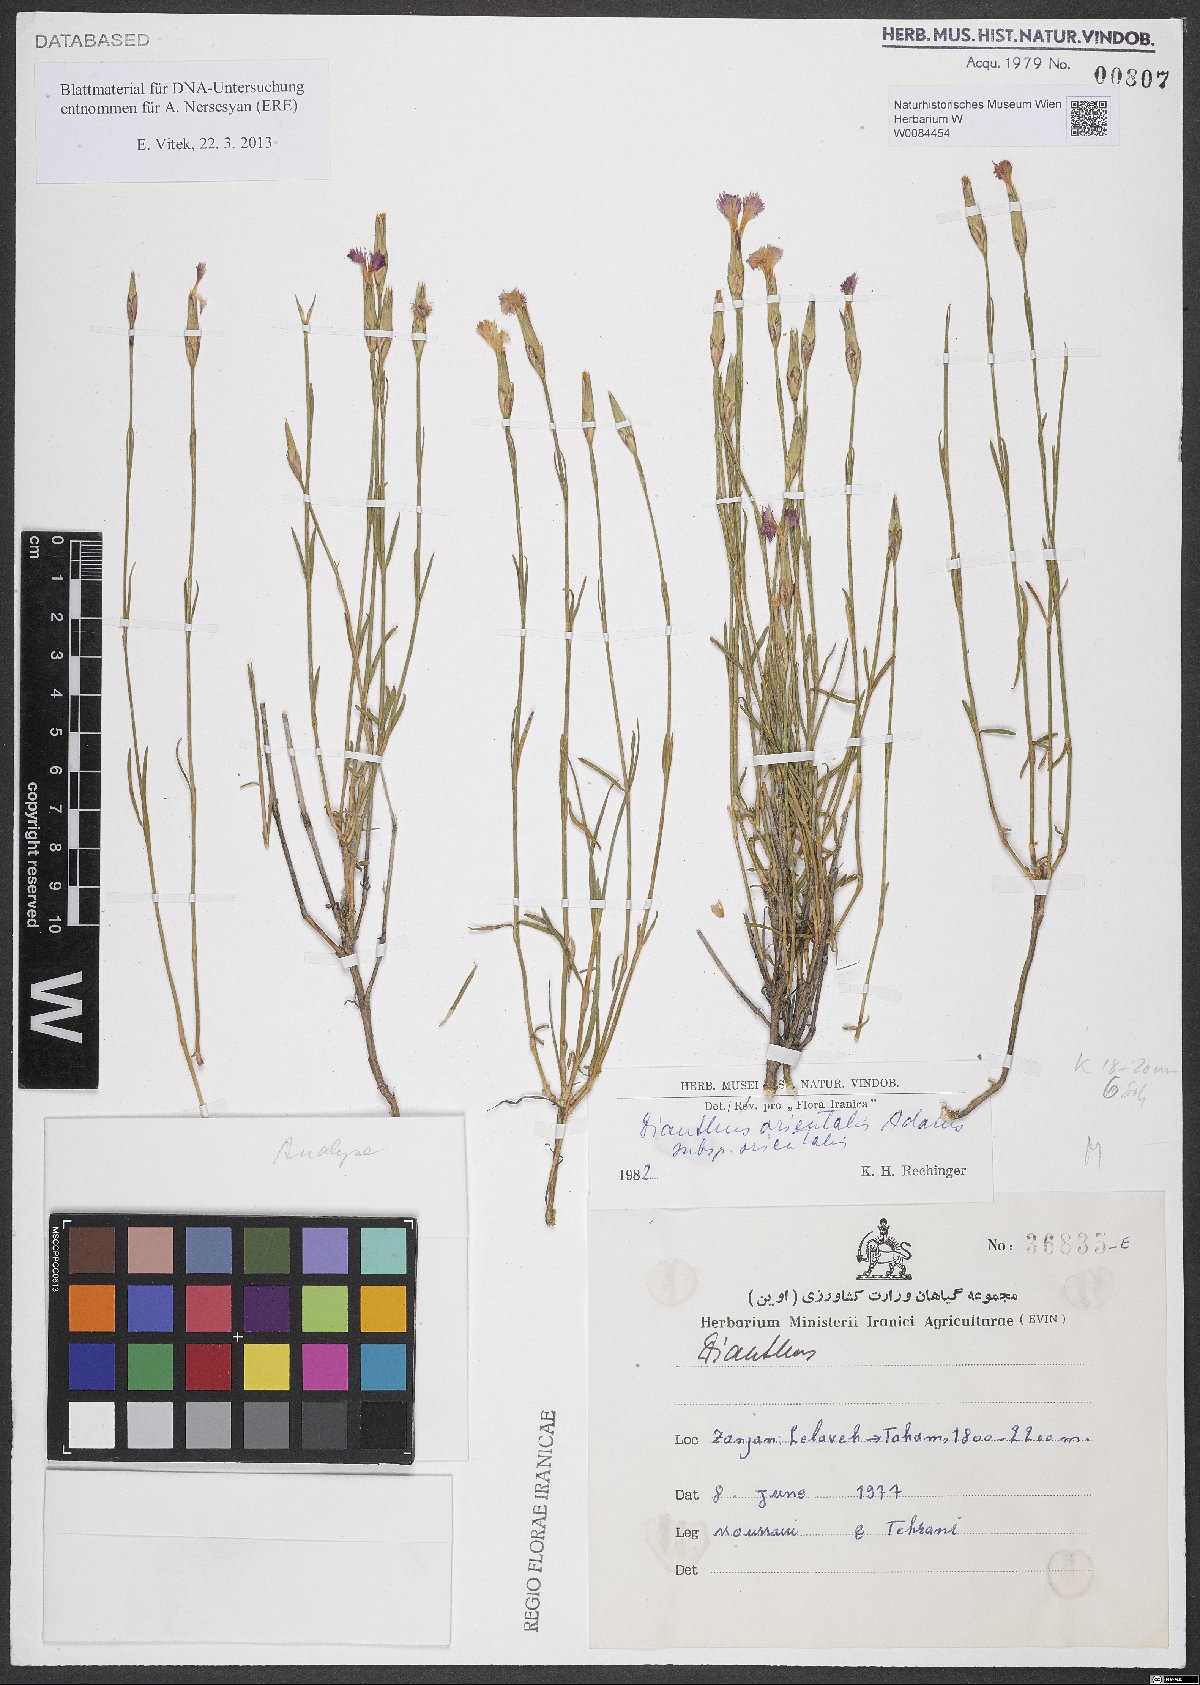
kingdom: Plantae
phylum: Tracheophyta
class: Magnoliopsida
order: Caryophyllales
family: Caryophyllaceae
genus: Dianthus
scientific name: Dianthus orientalis
